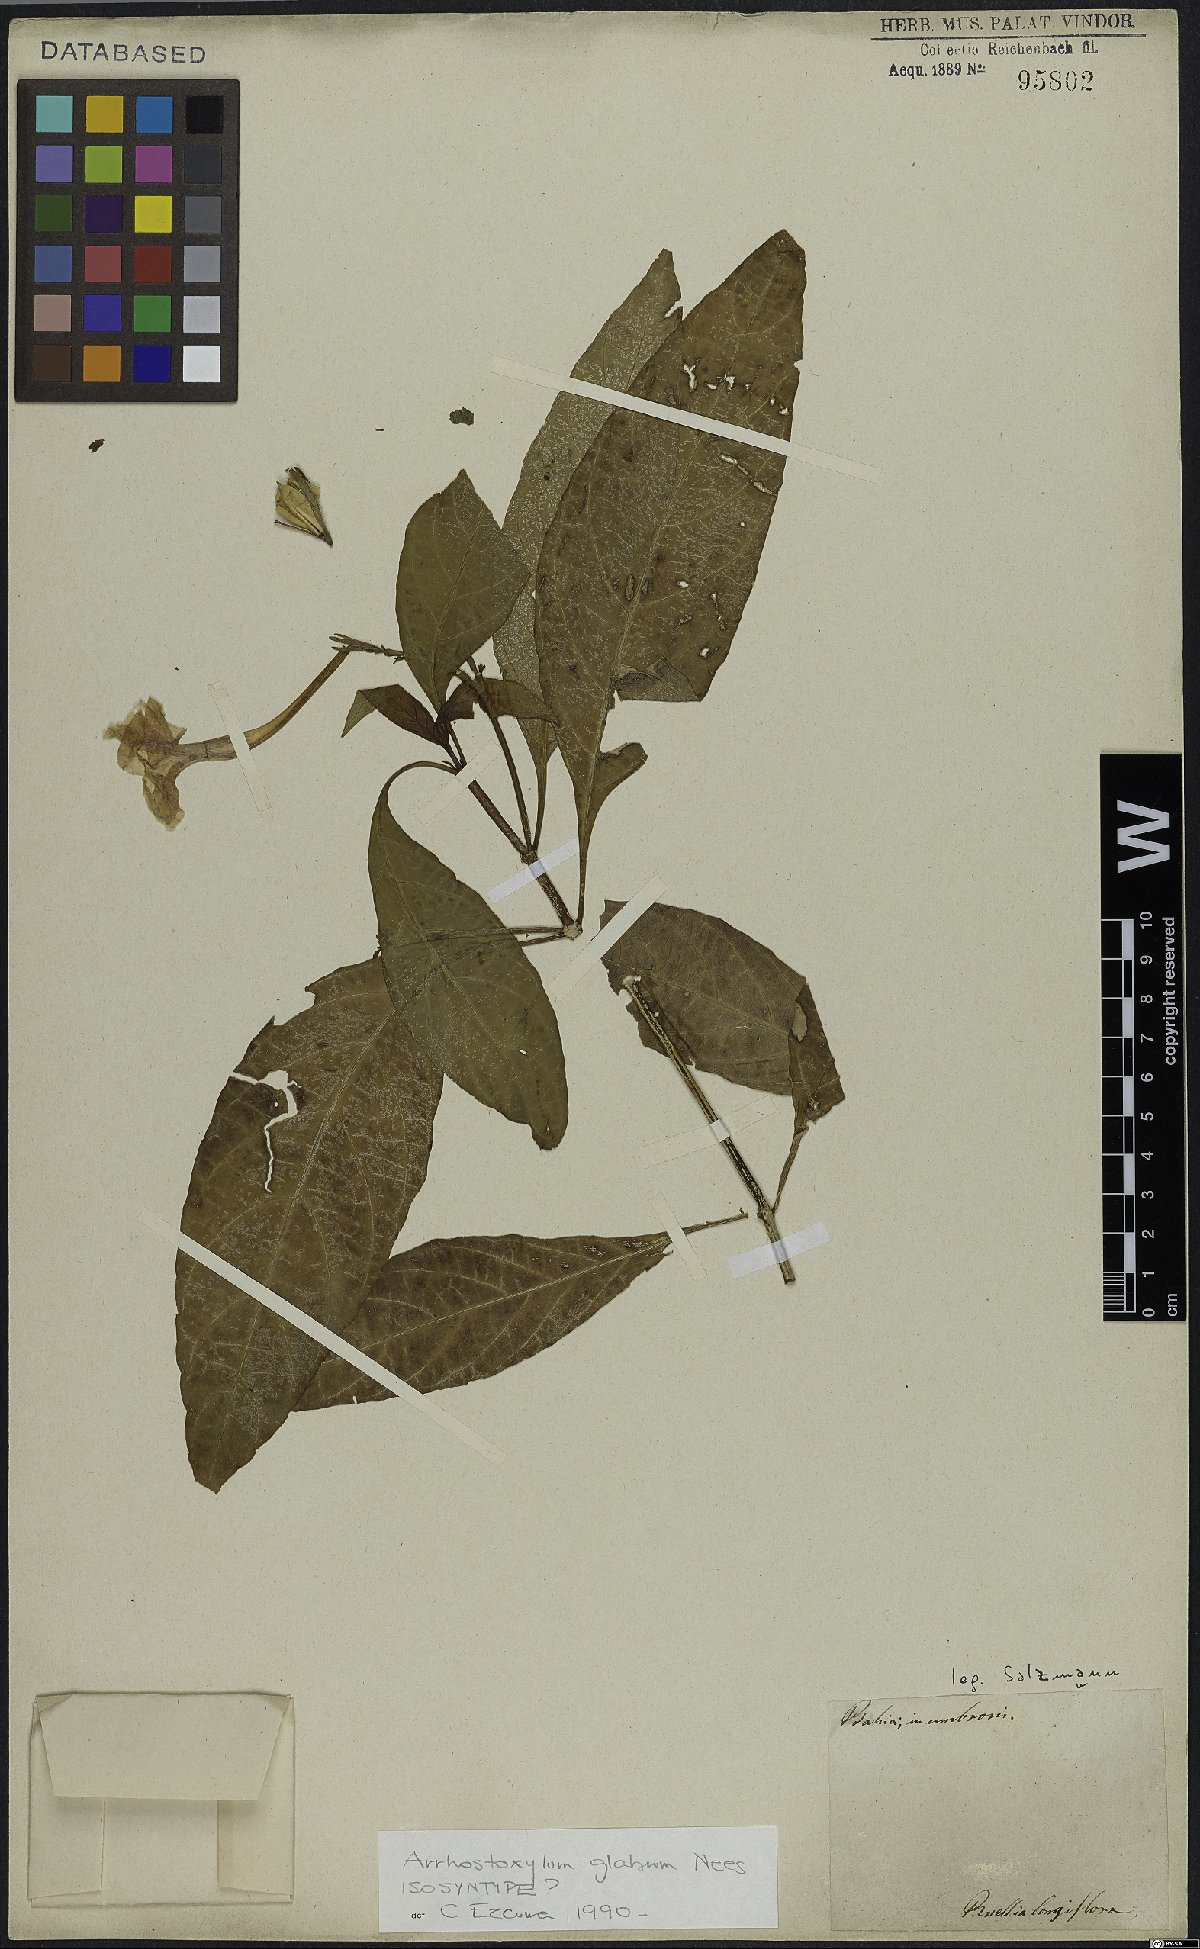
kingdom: Plantae
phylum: Tracheophyta
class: Magnoliopsida
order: Lamiales
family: Acanthaceae
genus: Ruellia
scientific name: Ruellia serrana
